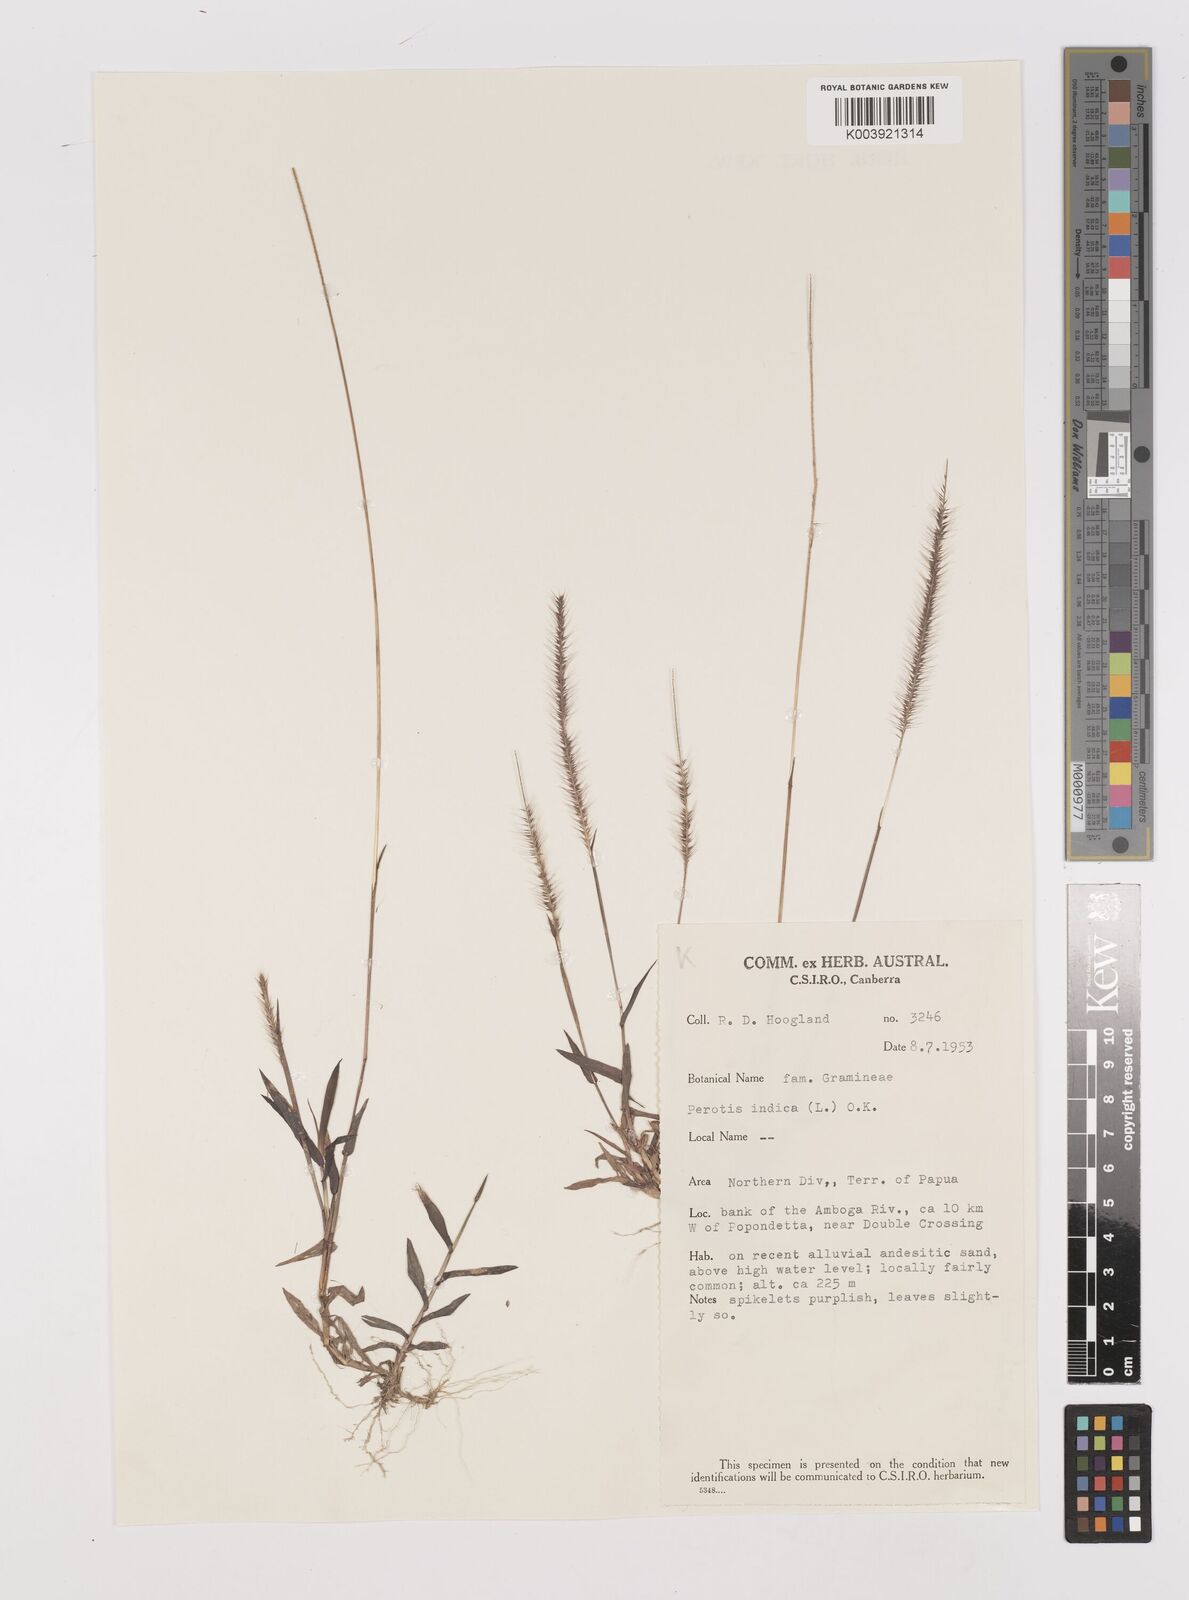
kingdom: Plantae
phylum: Tracheophyta
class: Liliopsida
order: Poales
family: Poaceae
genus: Perotis
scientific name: Perotis indica
